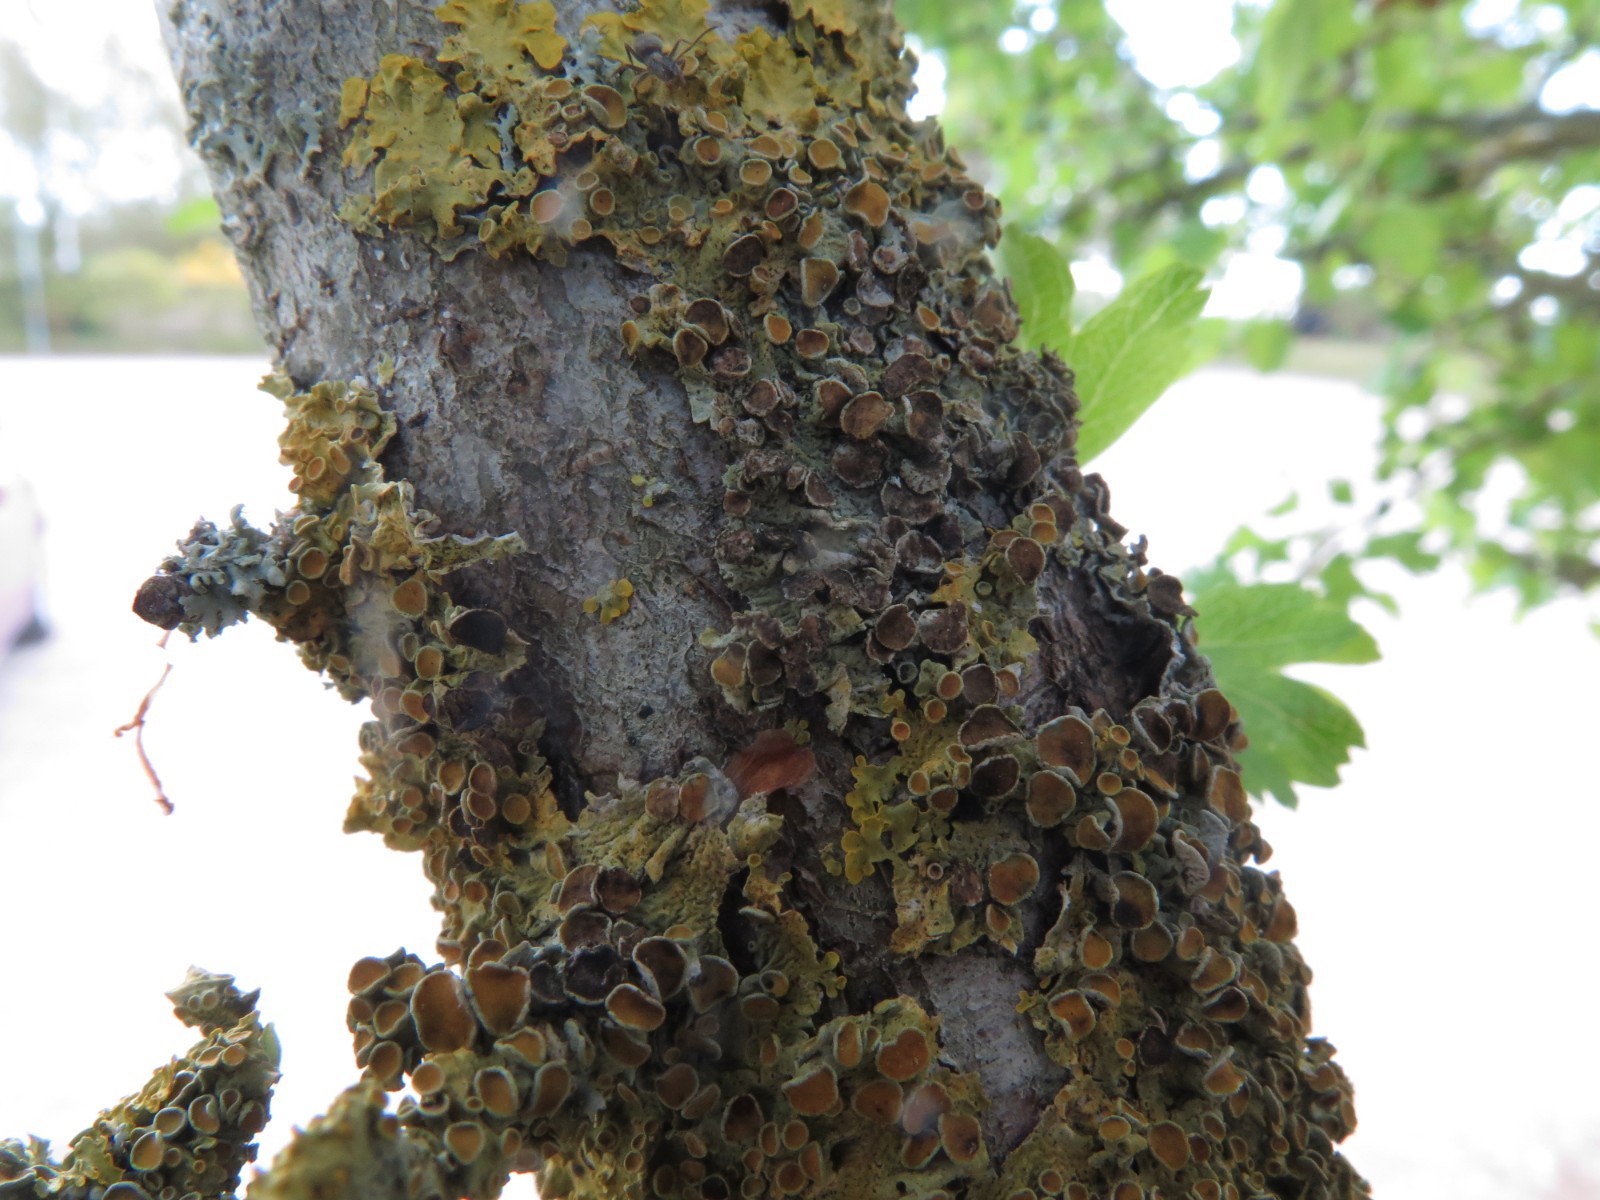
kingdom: Fungi
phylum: Ascomycota
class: Dothideomycetes
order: Mycosphaerellales
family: Teratosphaeriaceae
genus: Xanthoriicola
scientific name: Xanthoriicola physciae
